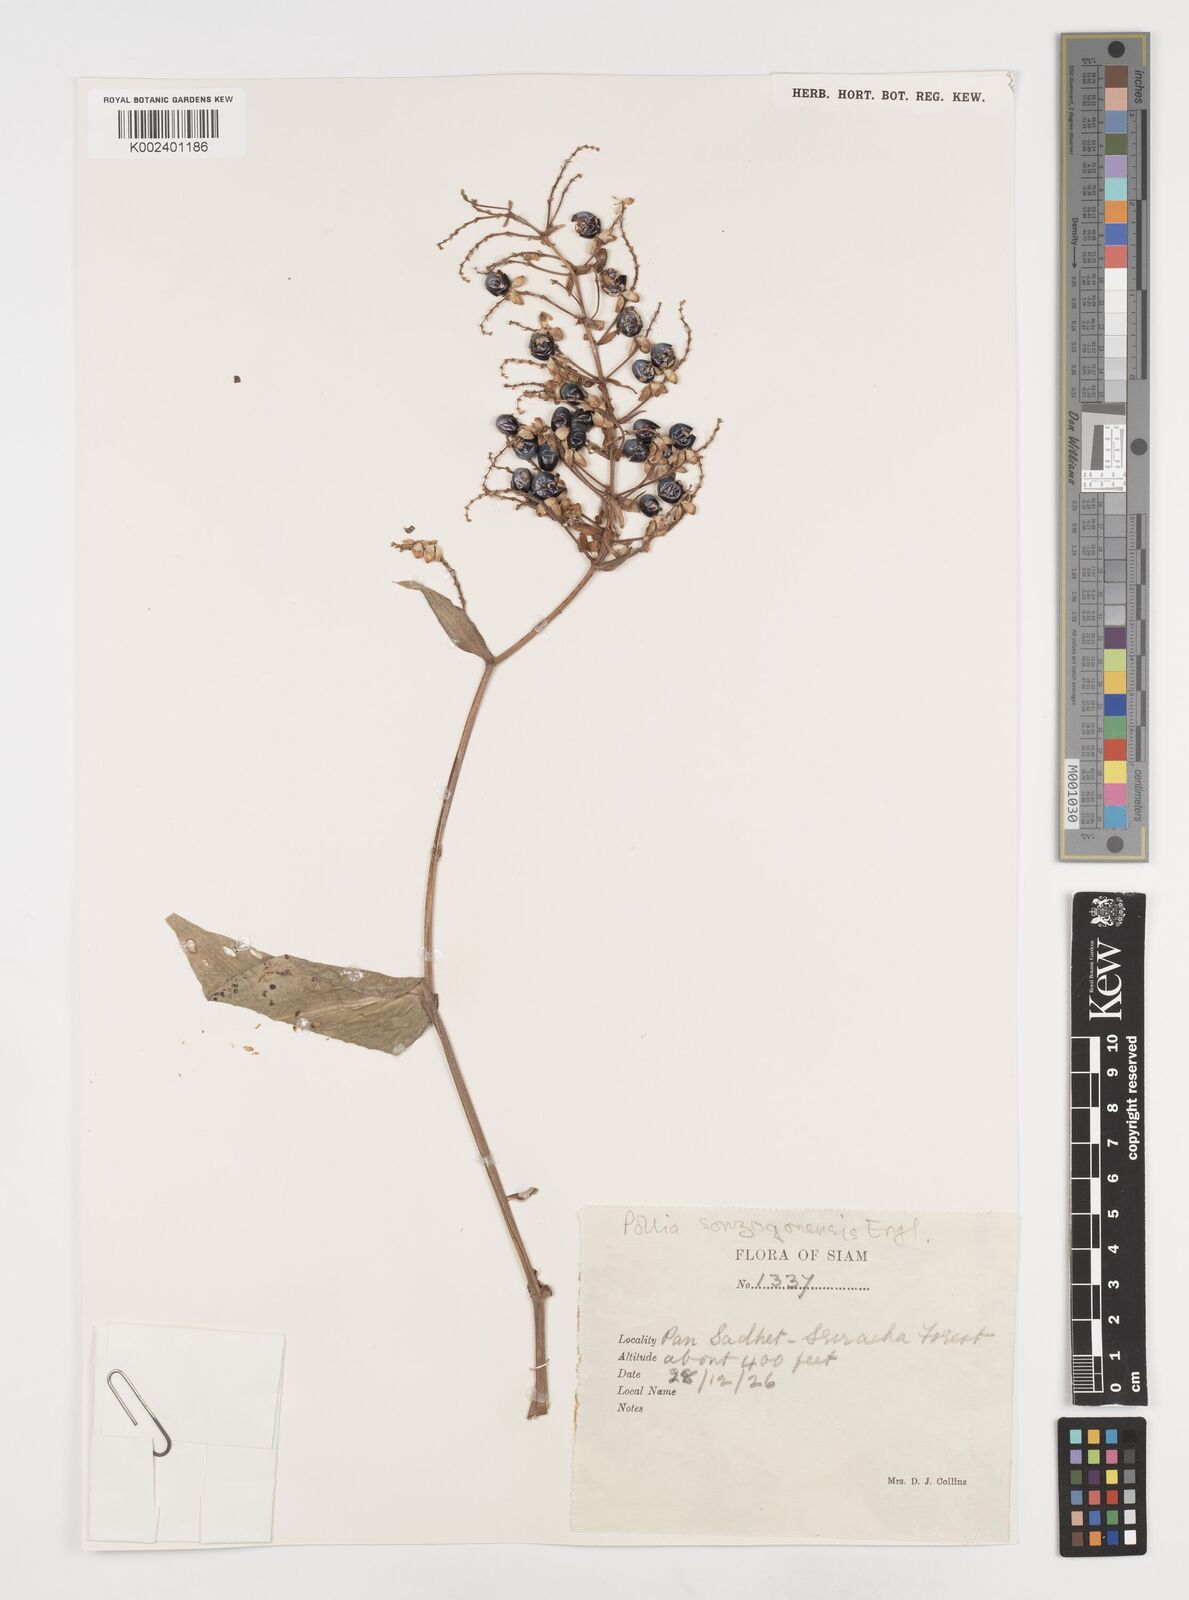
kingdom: Plantae
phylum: Tracheophyta
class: Liliopsida
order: Commelinales
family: Commelinaceae
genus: Pollia
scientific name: Pollia secundiflora
